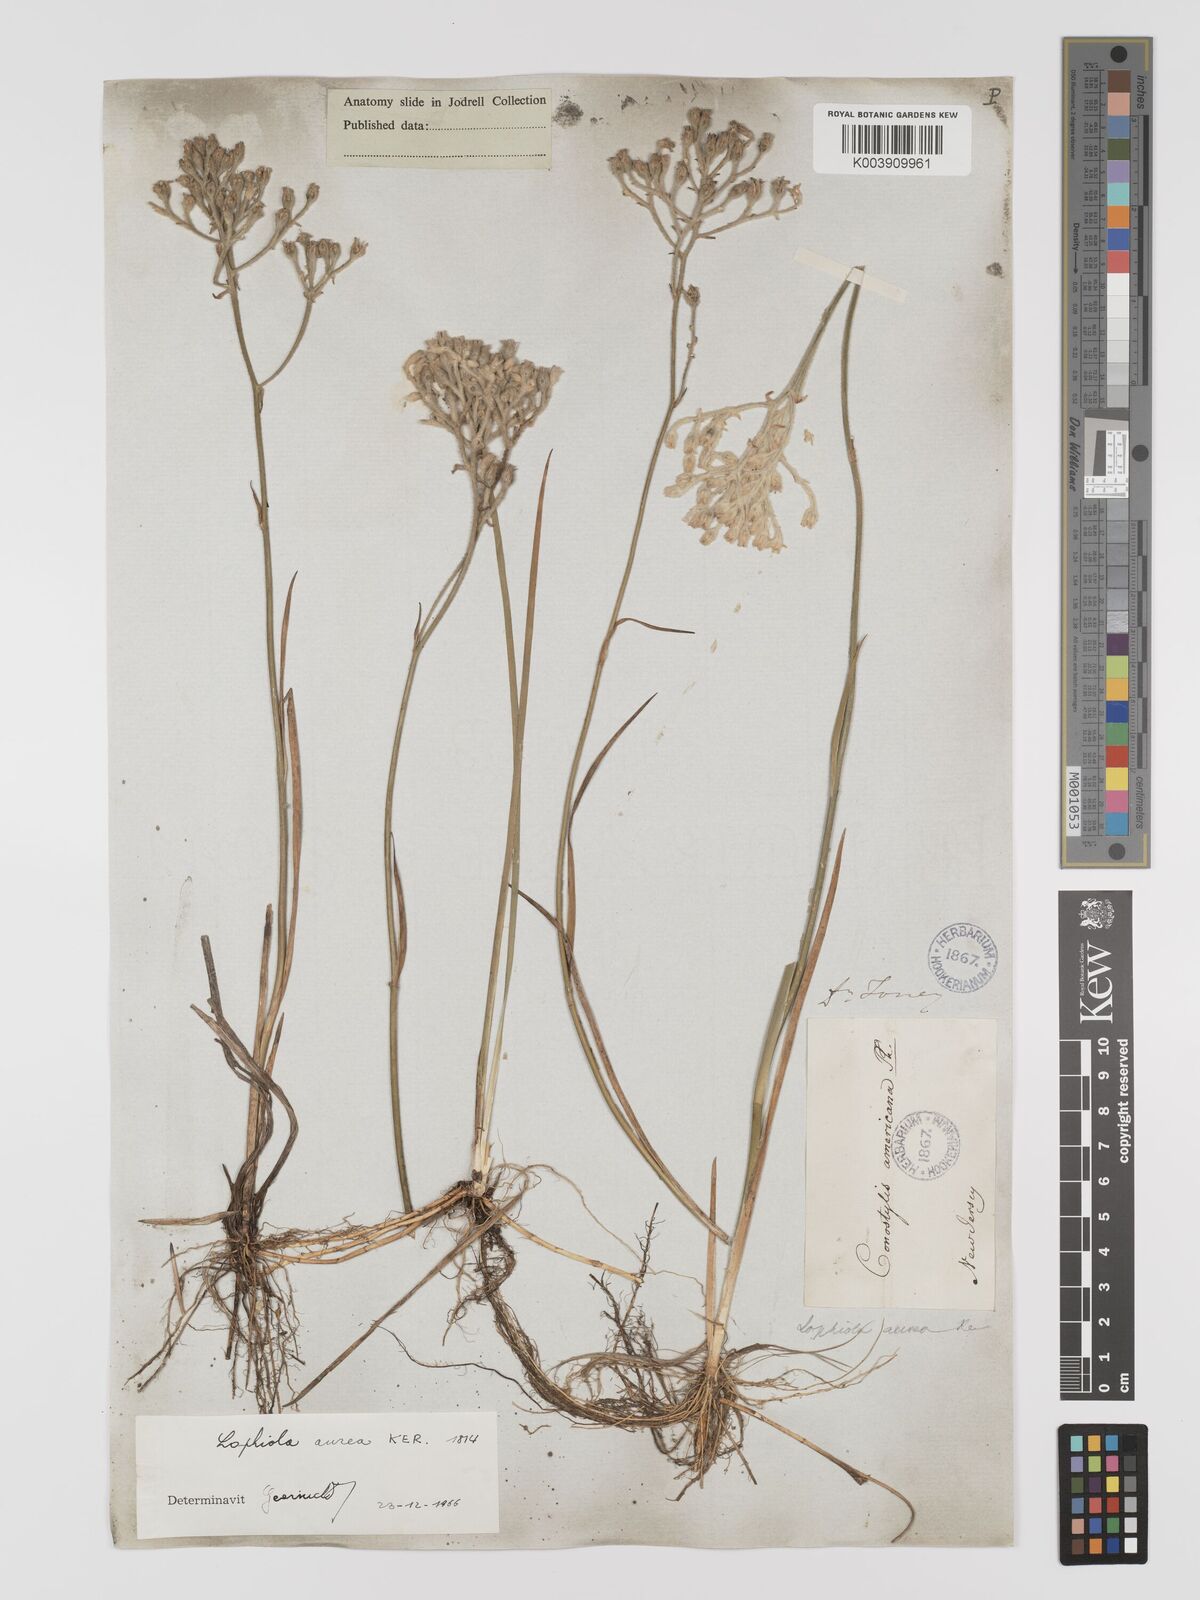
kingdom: Plantae
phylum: Tracheophyta
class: Liliopsida
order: Dioscoreales
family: Nartheciaceae
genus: Lophiola
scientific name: Lophiola aurea
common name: Golden-crest
